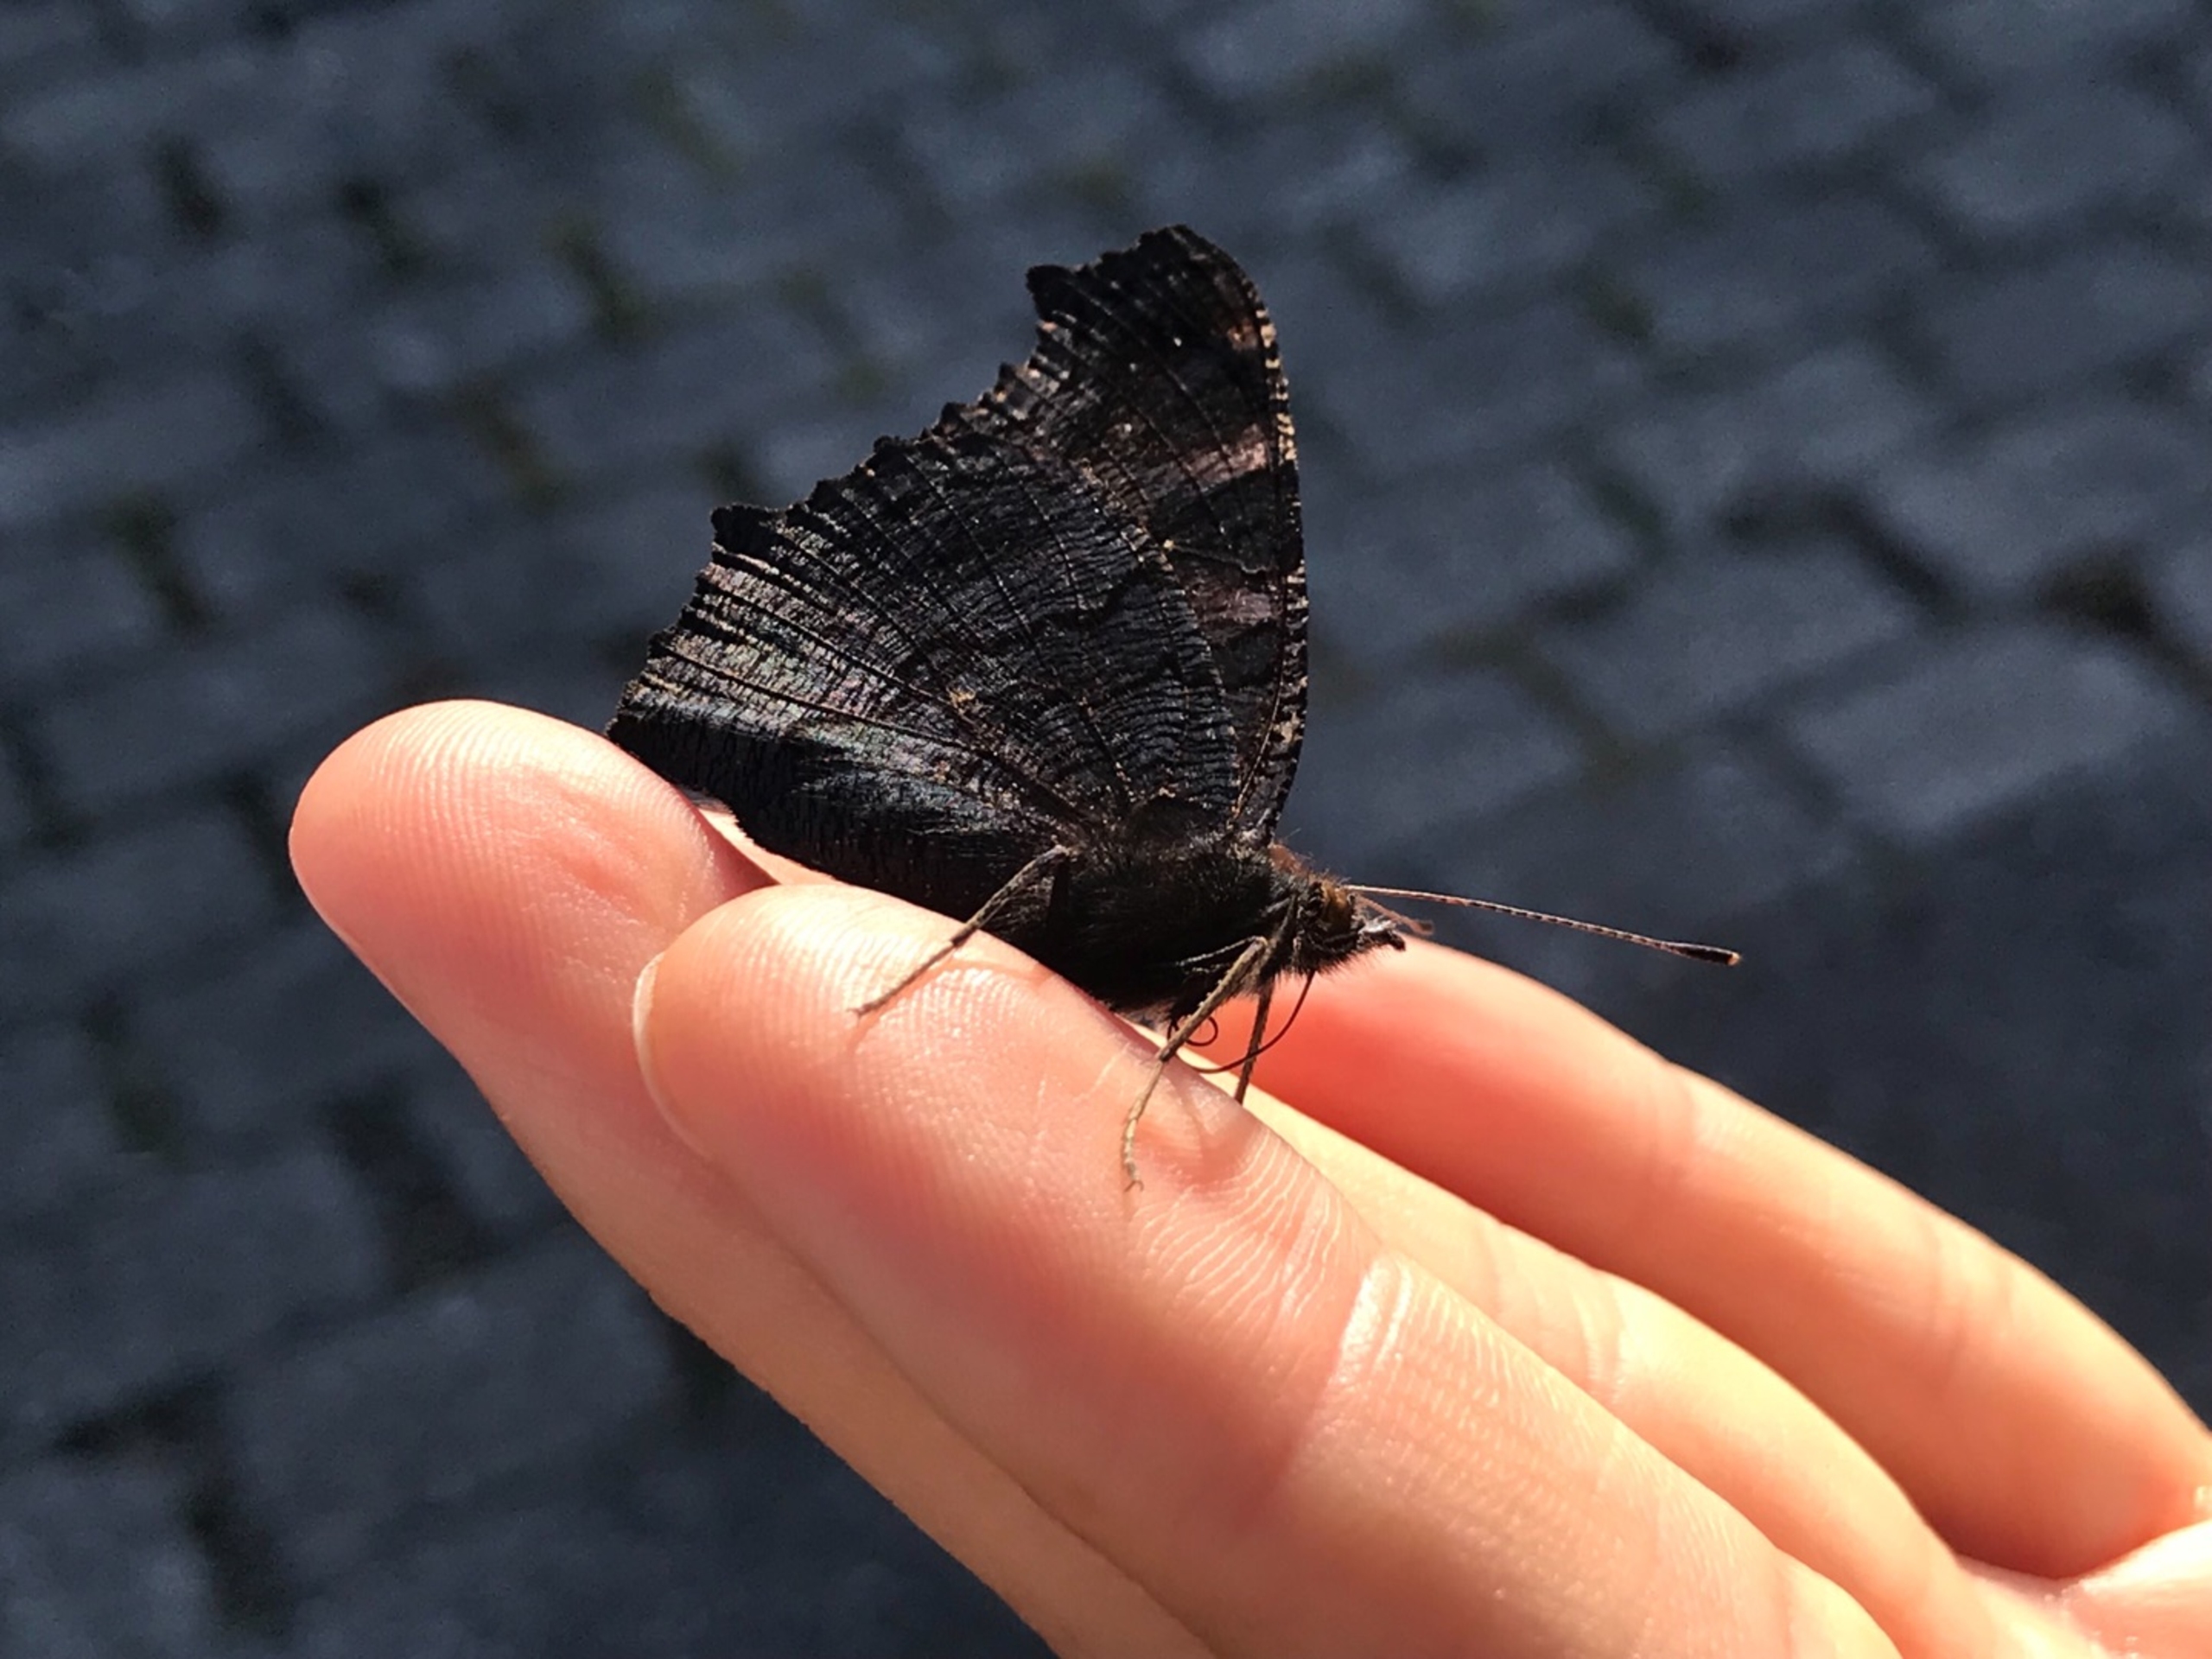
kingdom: Animalia
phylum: Arthropoda
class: Insecta
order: Lepidoptera
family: Nymphalidae
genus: Aglais
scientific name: Aglais io
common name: Dagpåfugleøje
